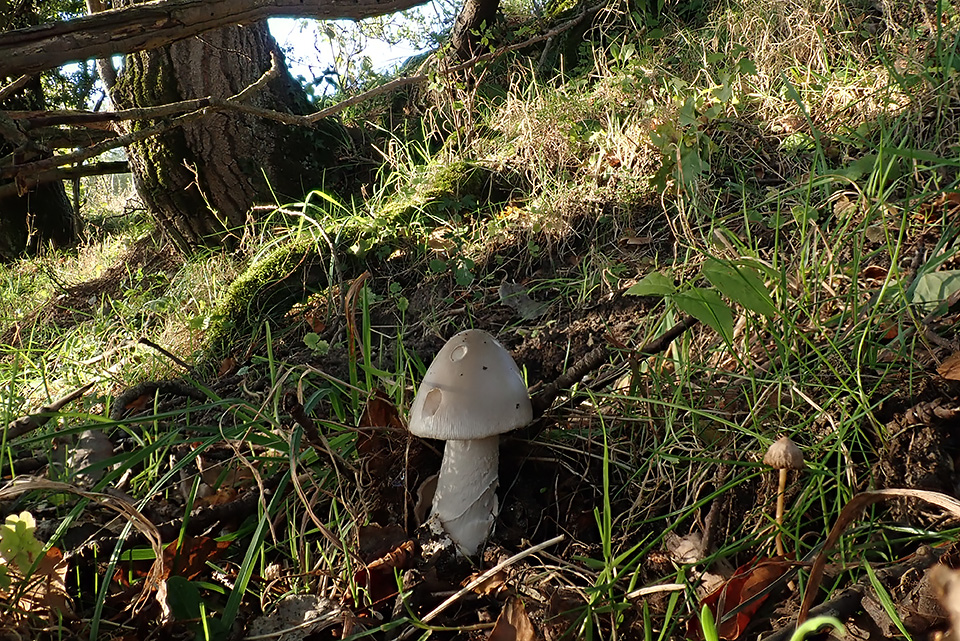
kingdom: Fungi
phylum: Basidiomycota
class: Agaricomycetes
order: Agaricales
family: Amanitaceae
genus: Amanita
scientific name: Amanita simulans
